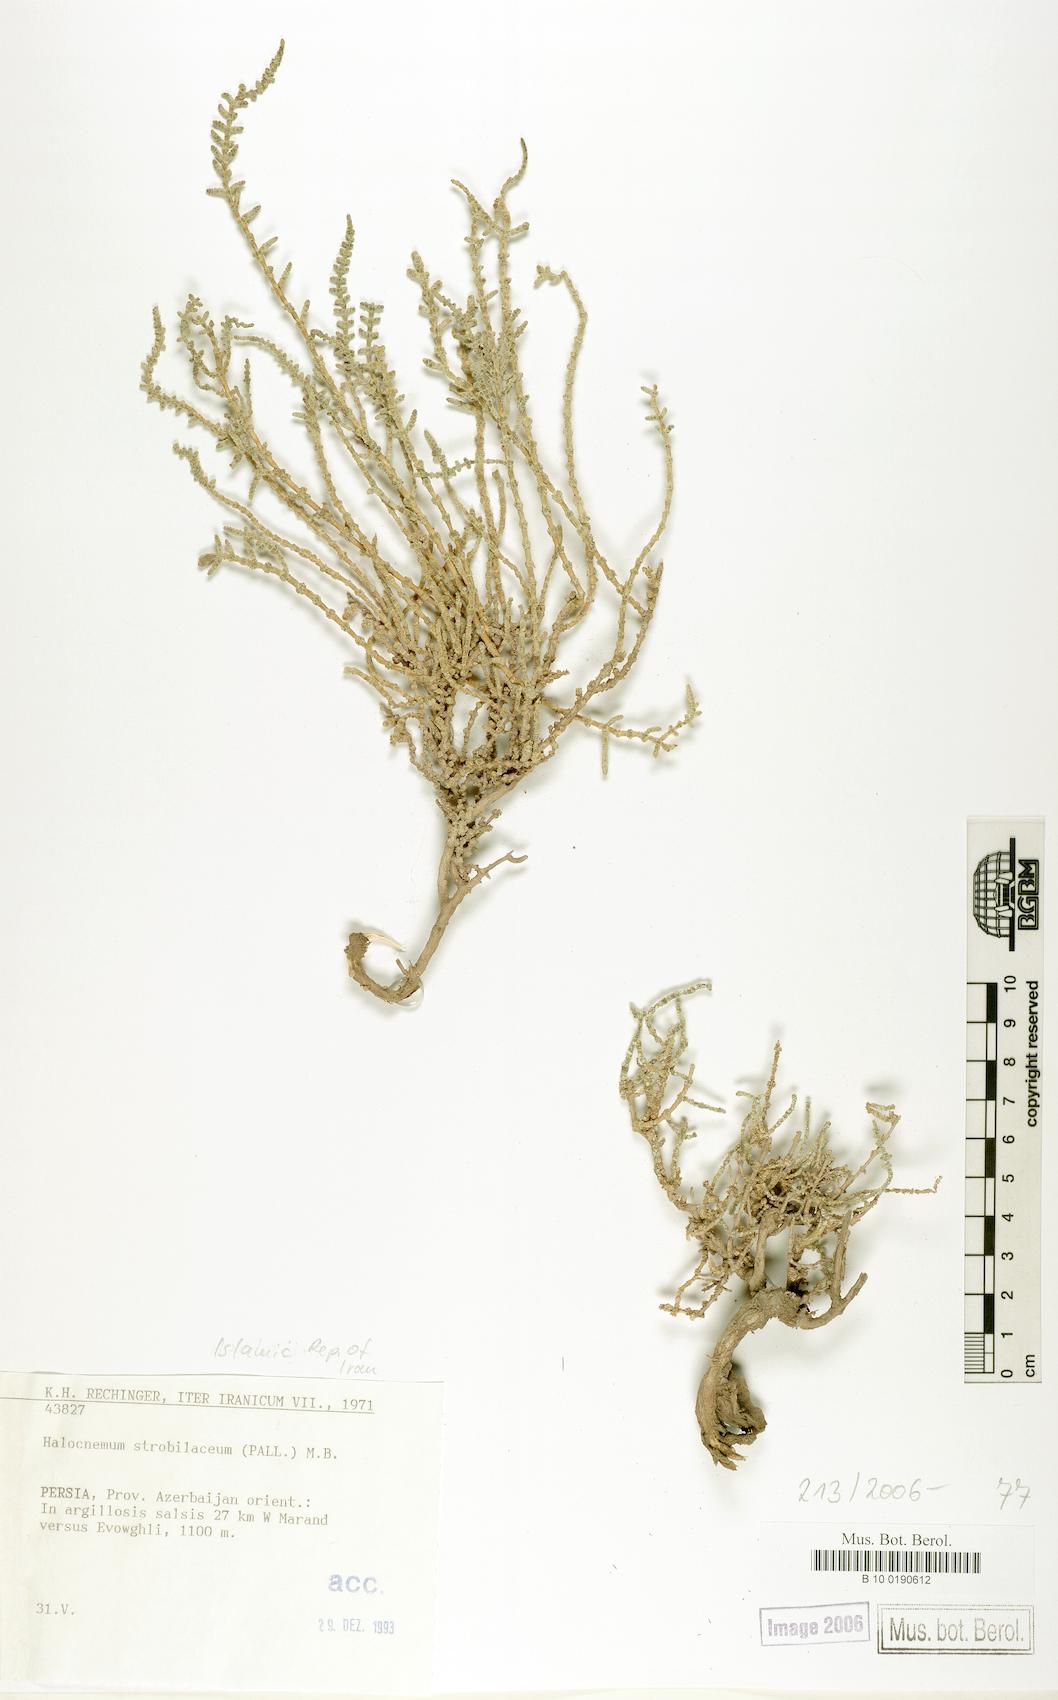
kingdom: Plantae
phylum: Tracheophyta
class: Magnoliopsida
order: Caryophyllales
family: Amaranthaceae
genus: Halocnemum
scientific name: Halocnemum strobilaceum
